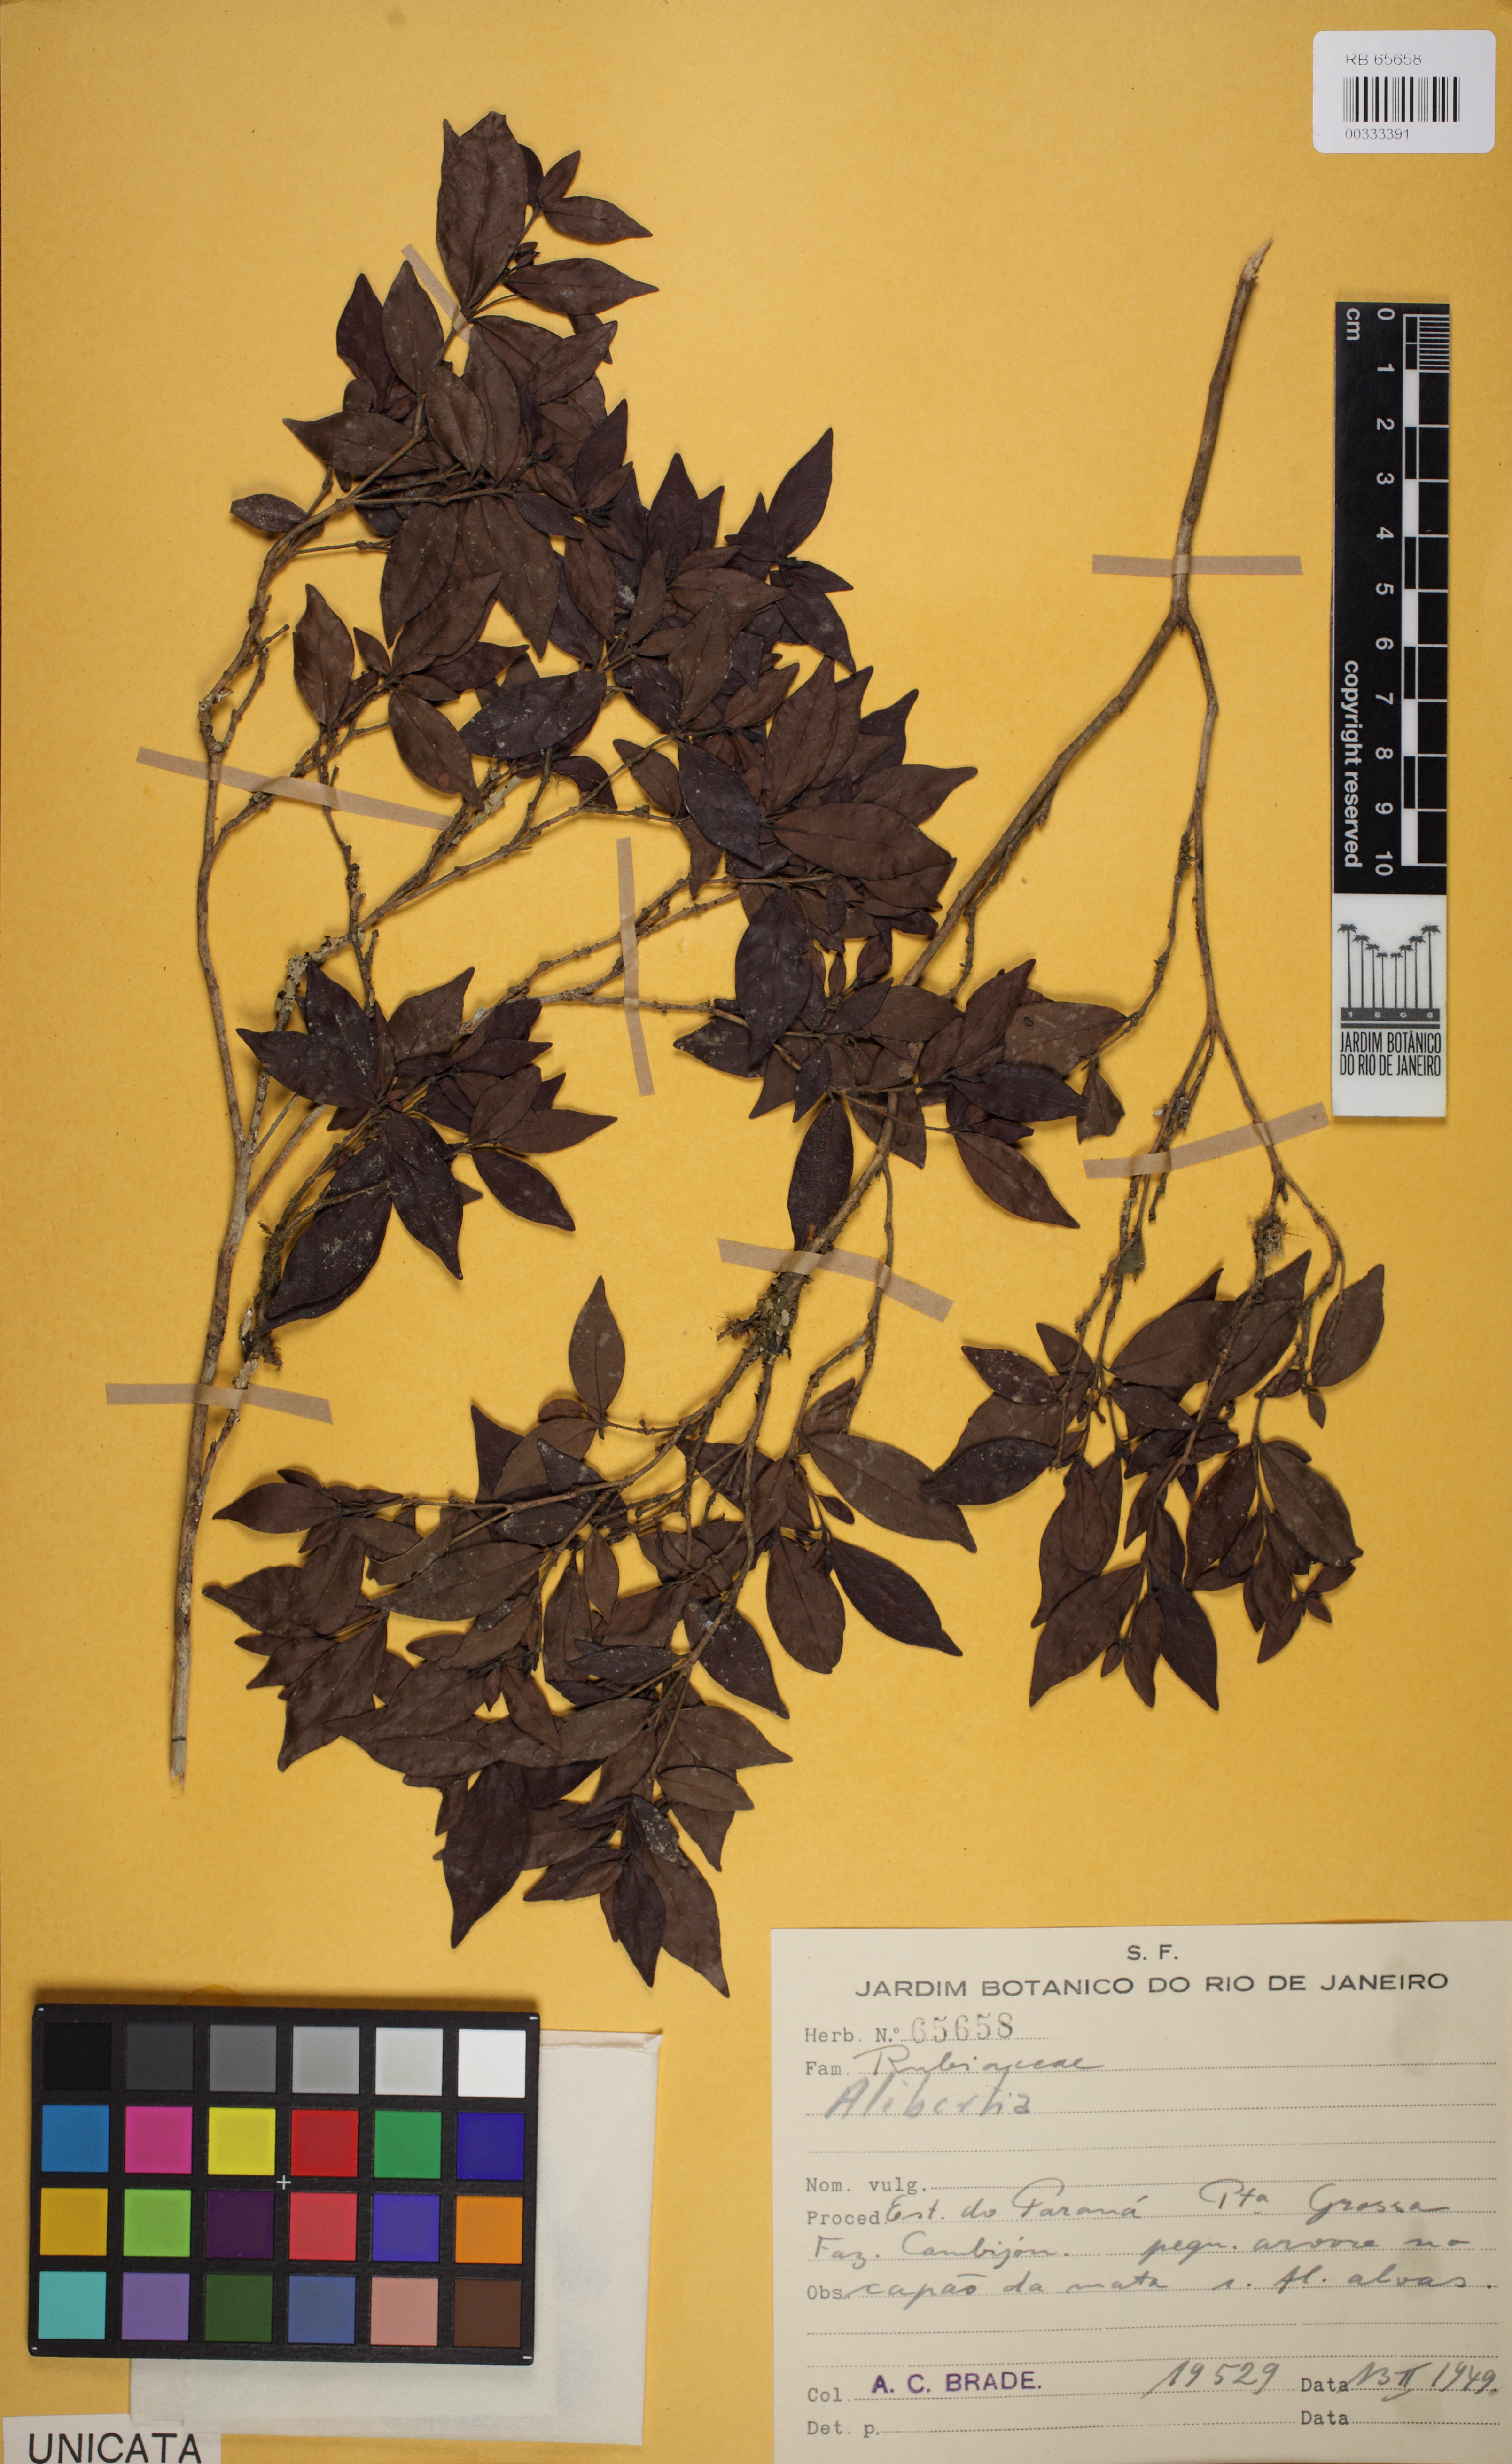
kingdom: Plantae
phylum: Tracheophyta
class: Magnoliopsida
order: Gentianales
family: Rubiaceae
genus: Cordiera
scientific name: Cordiera
